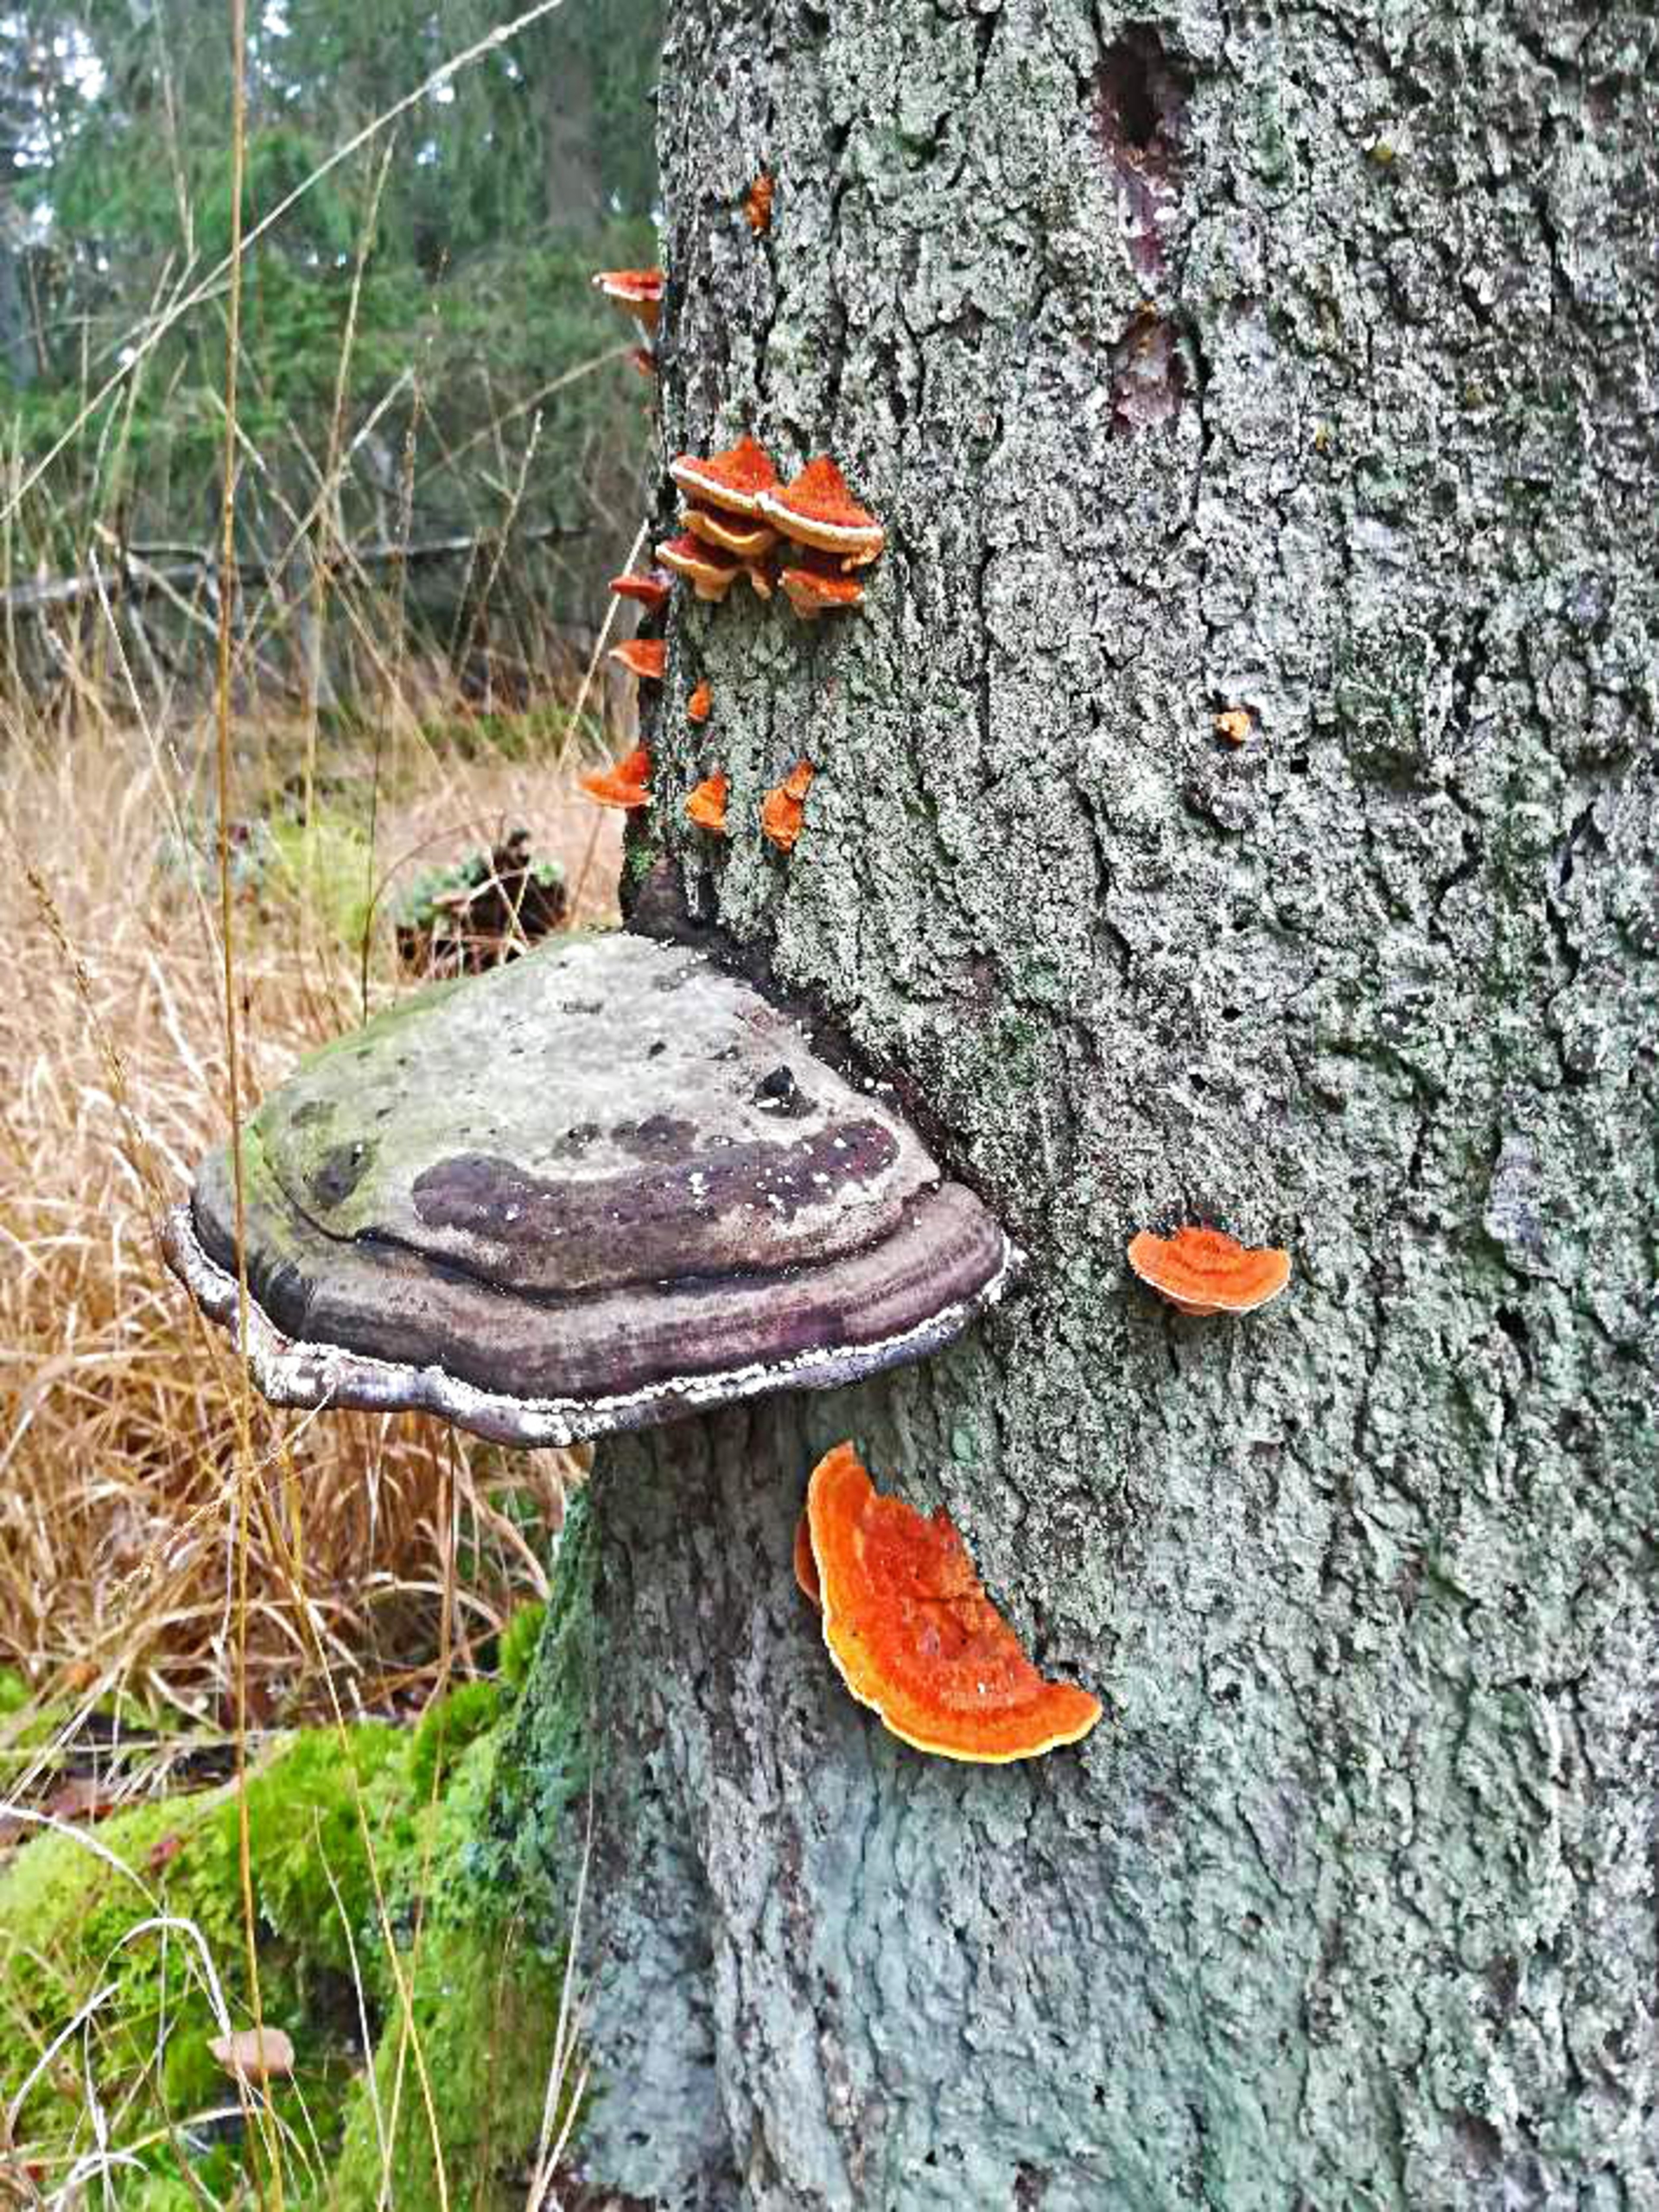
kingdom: Fungi
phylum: Basidiomycota
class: Agaricomycetes
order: Polyporales
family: Pycnoporellaceae
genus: Pycnoporellus
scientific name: Pycnoporellus fulgens
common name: Flammeporesvamp
